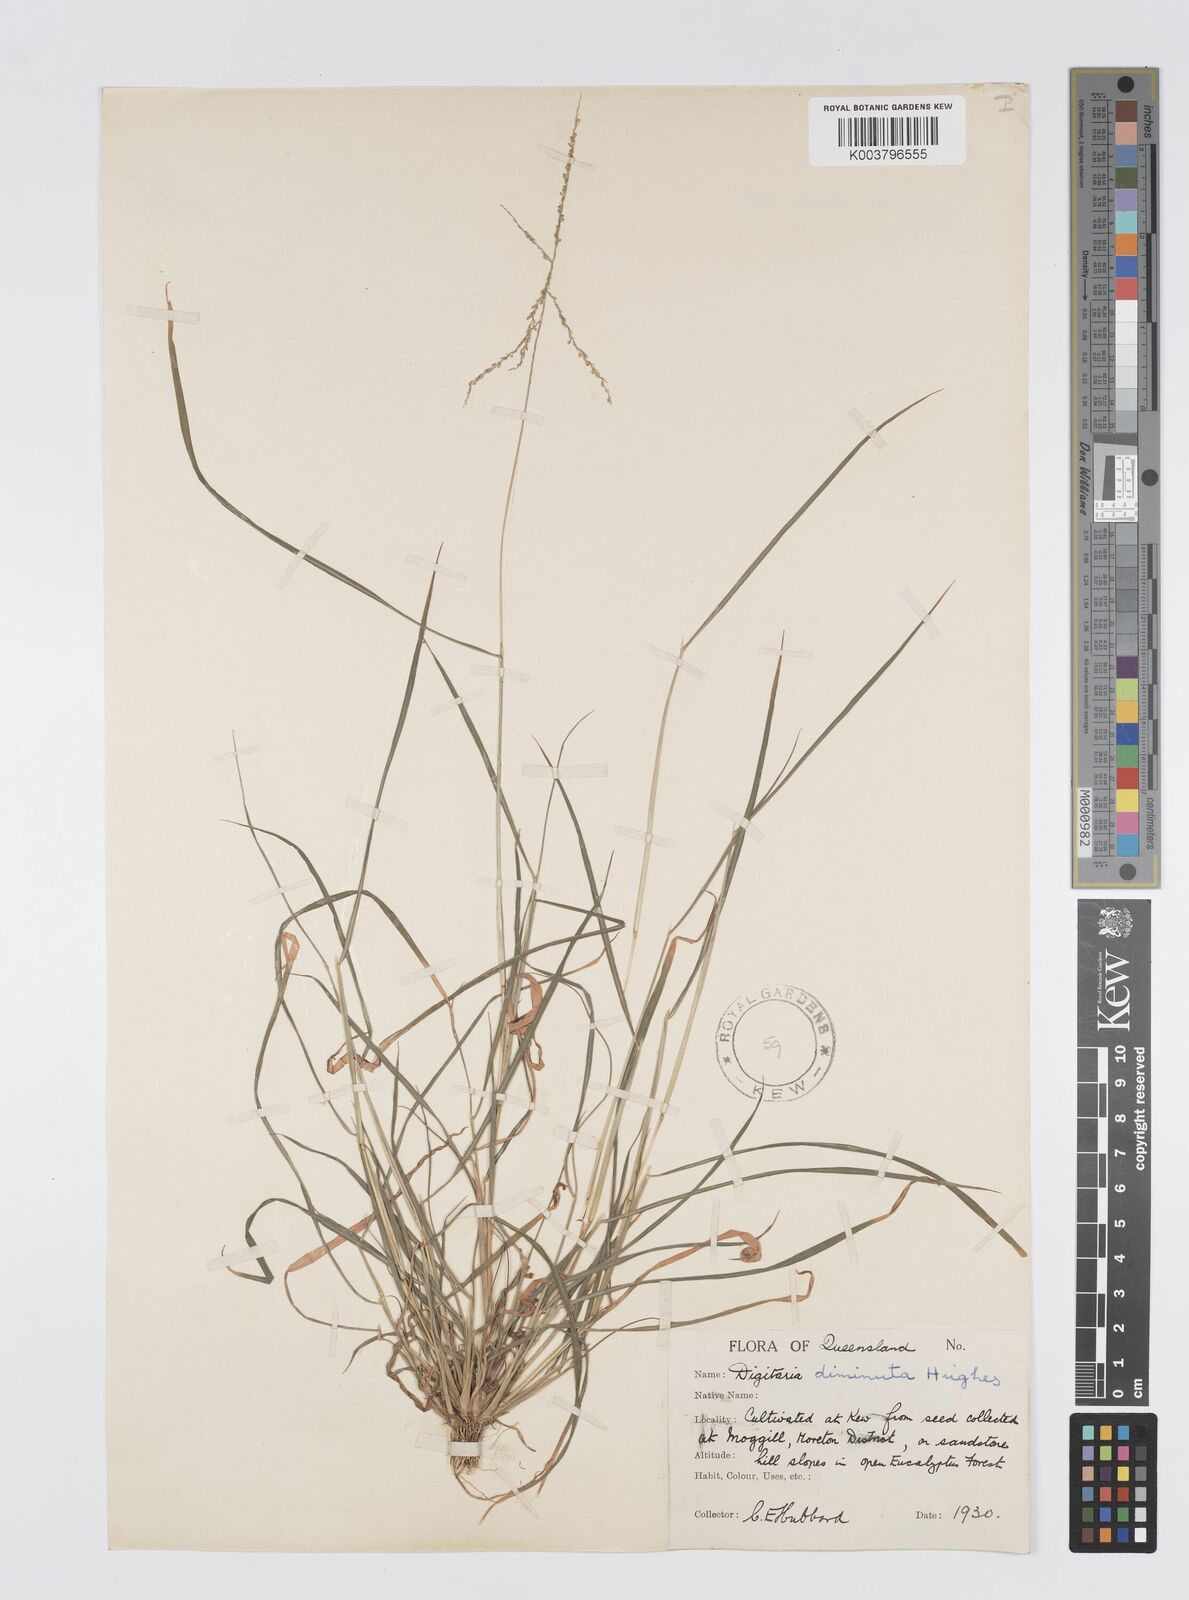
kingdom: Plantae
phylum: Tracheophyta
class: Liliopsida
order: Poales
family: Poaceae
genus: Digitaria
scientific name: Digitaria breviglumis
